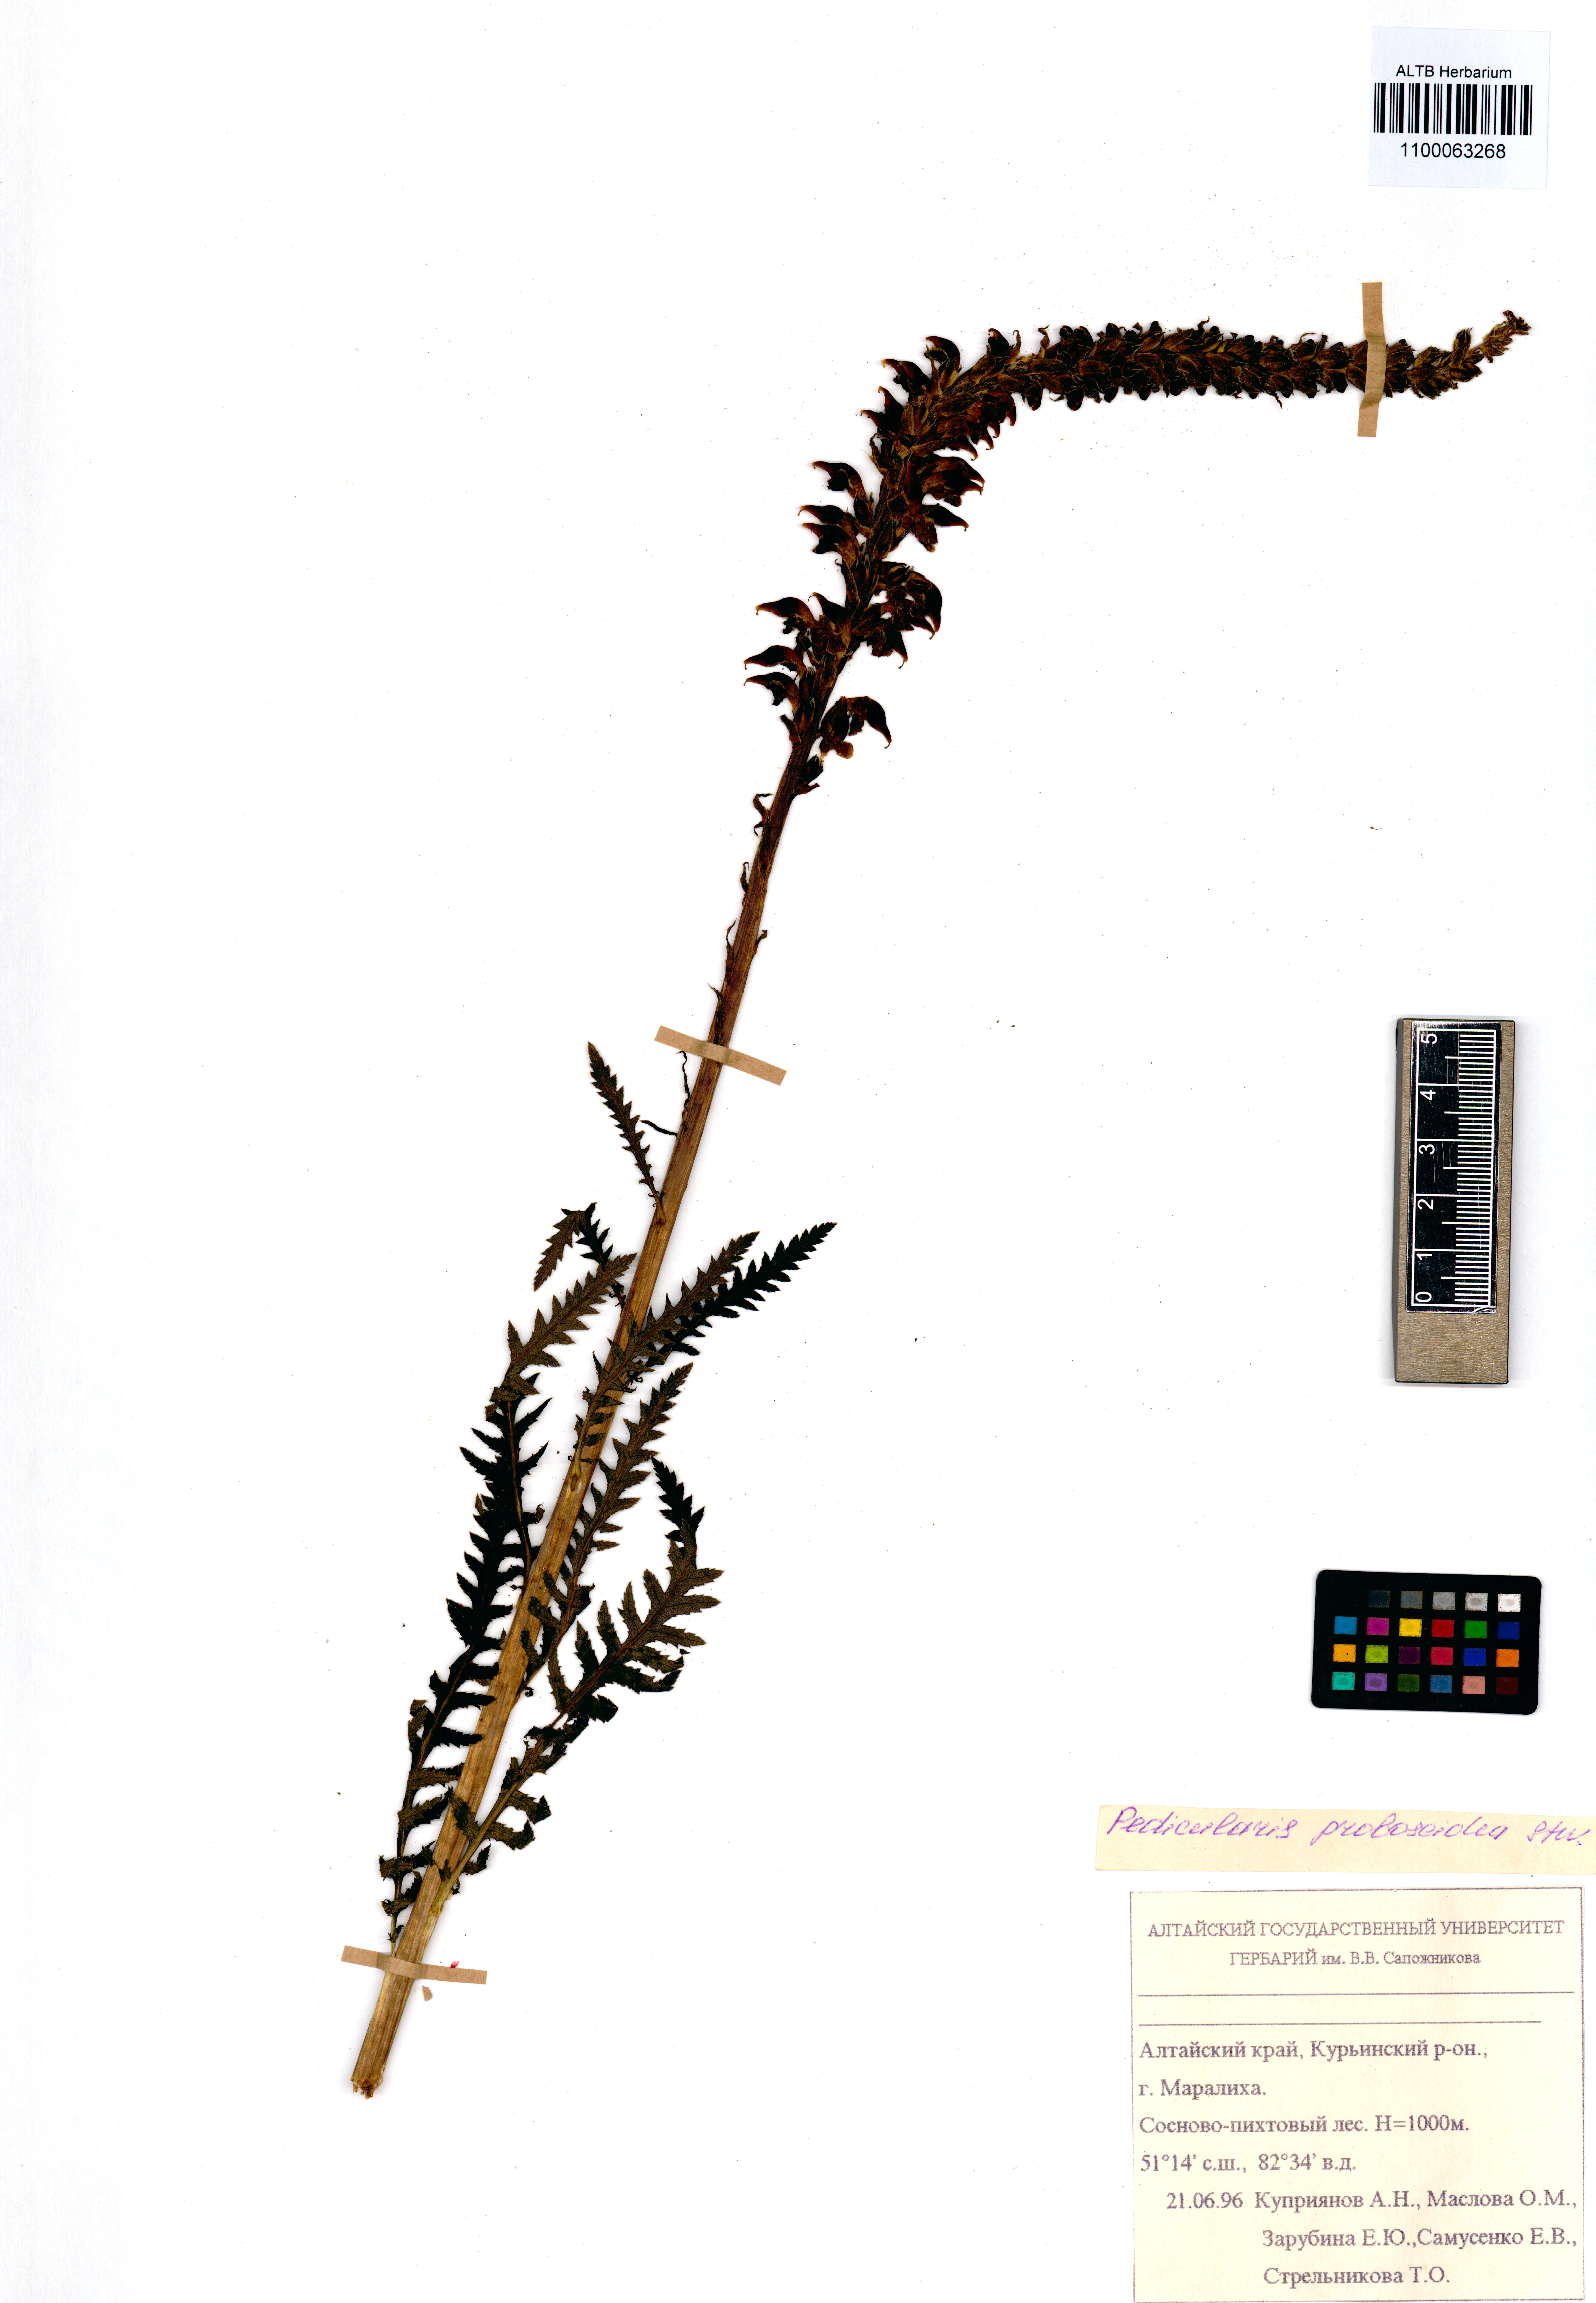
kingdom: Plantae
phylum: Tracheophyta
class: Magnoliopsida
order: Lamiales
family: Orobanchaceae
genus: Pedicularis
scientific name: Pedicularis cenisia
